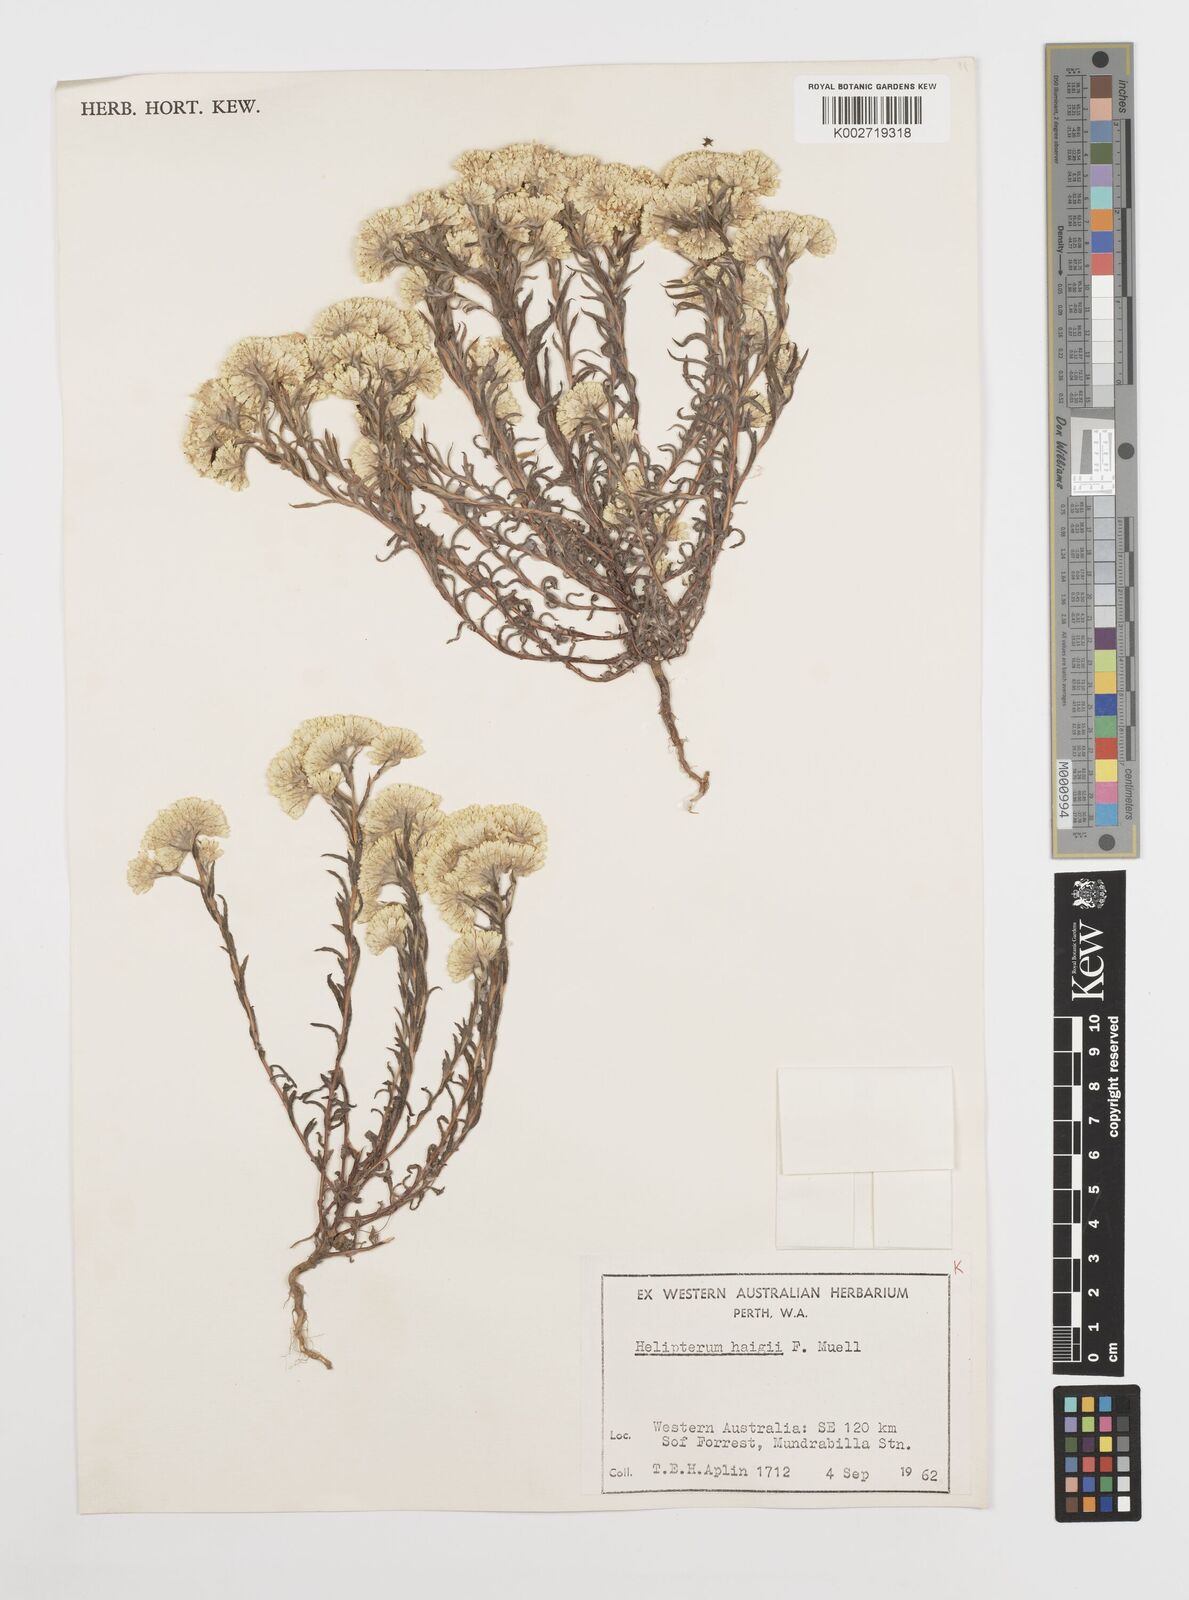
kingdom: Plantae
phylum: Tracheophyta
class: Magnoliopsida
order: Asterales
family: Asteraceae
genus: Rhodanthe
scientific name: Rhodanthe haigii
